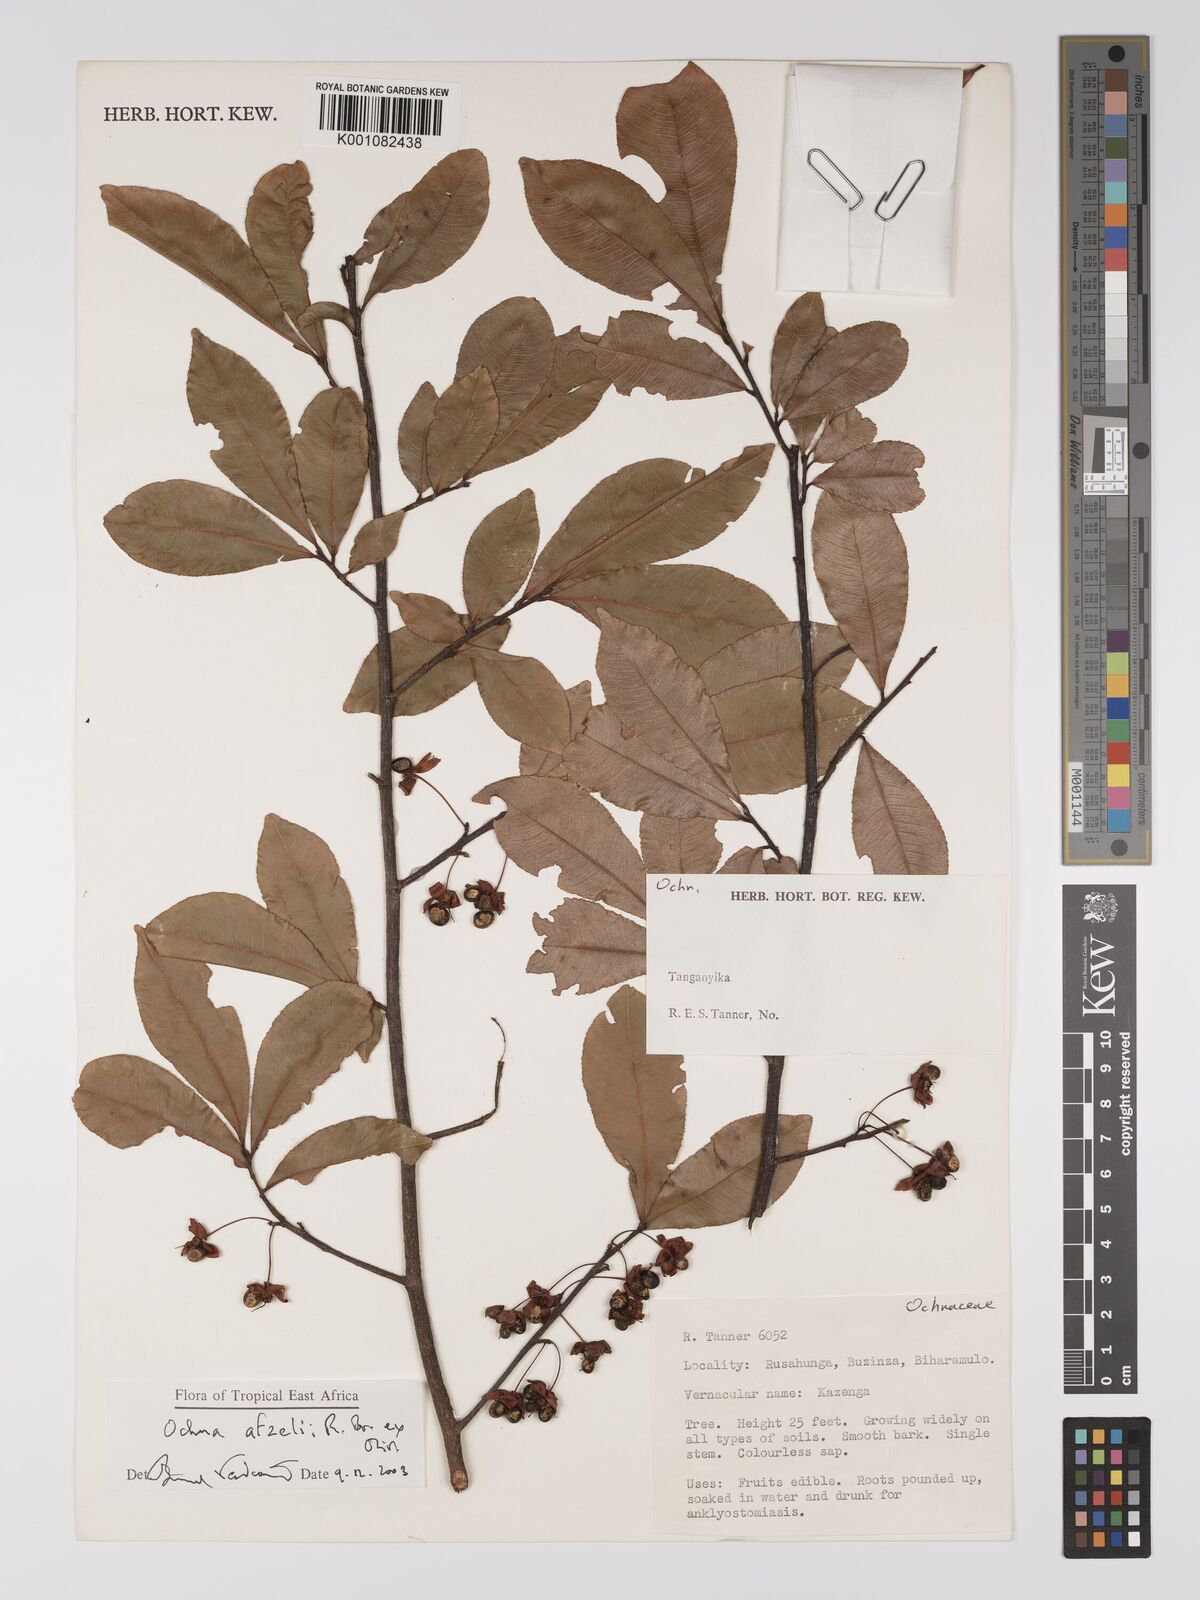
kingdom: Plantae
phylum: Tracheophyta
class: Magnoliopsida
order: Malpighiales
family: Ochnaceae
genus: Ochna
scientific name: Ochna afzelii
